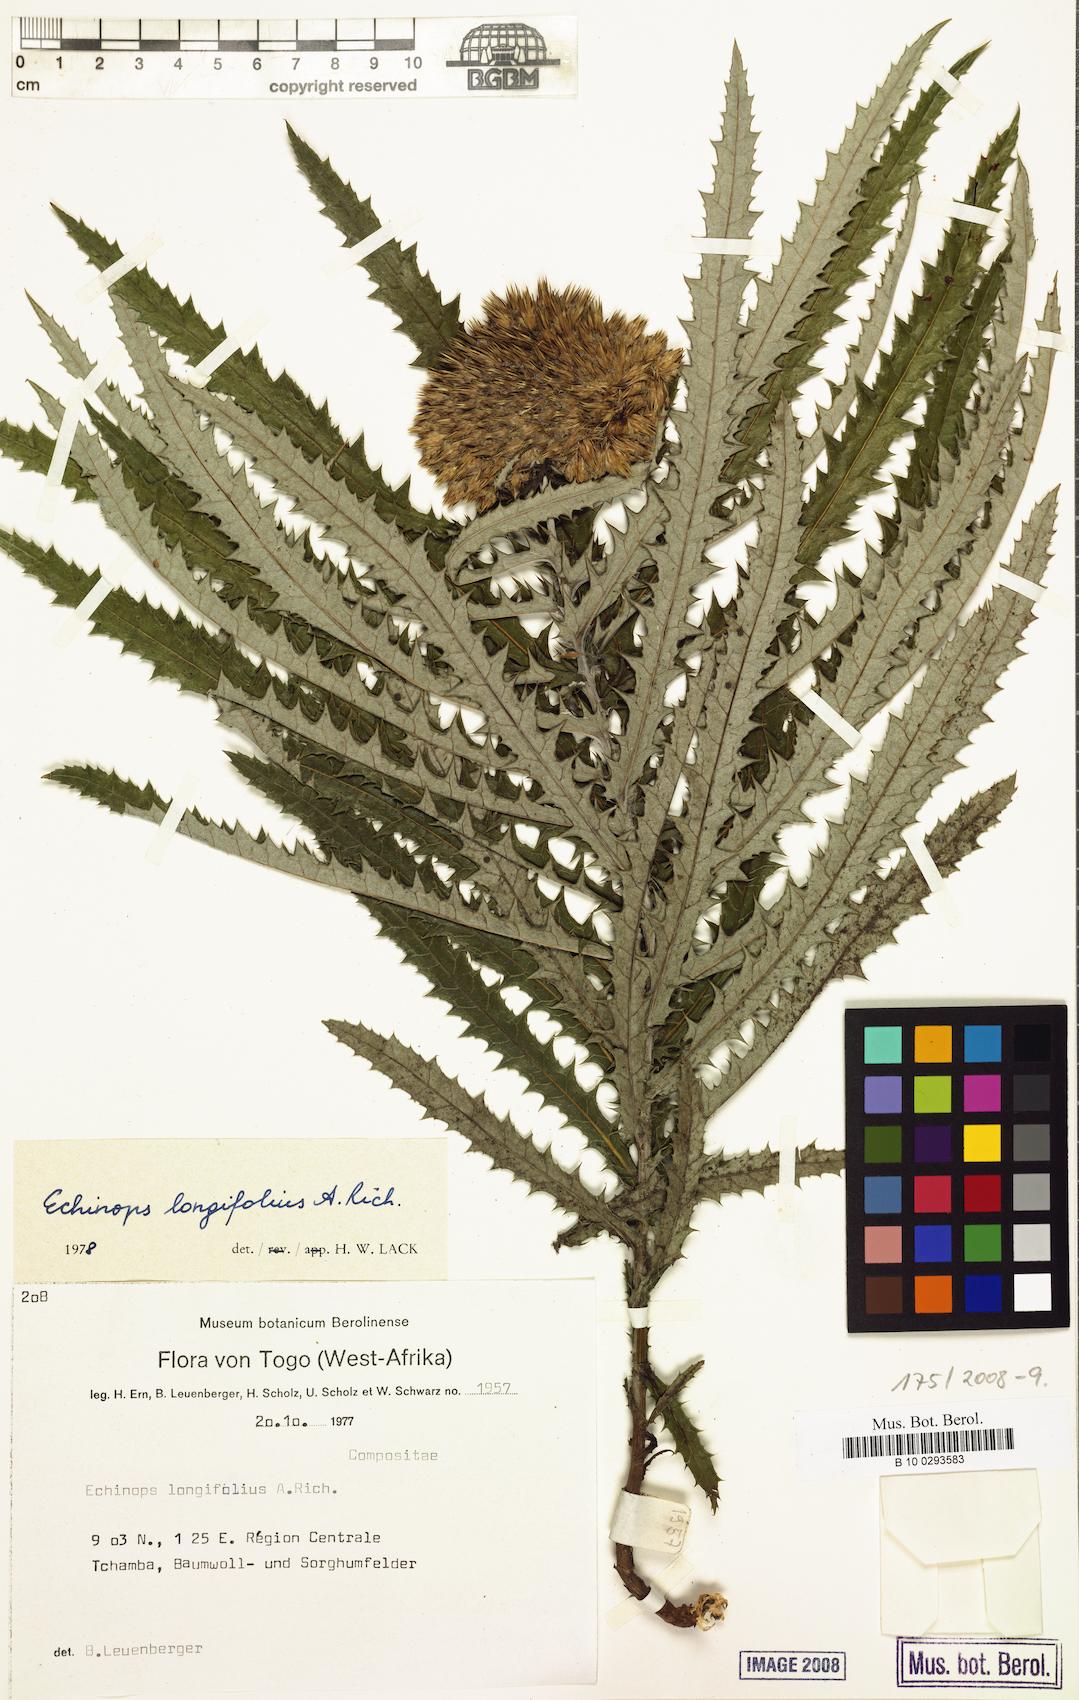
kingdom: Plantae
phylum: Tracheophyta
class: Magnoliopsida
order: Asterales
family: Asteraceae
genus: Echinops
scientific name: Echinops longifolius
